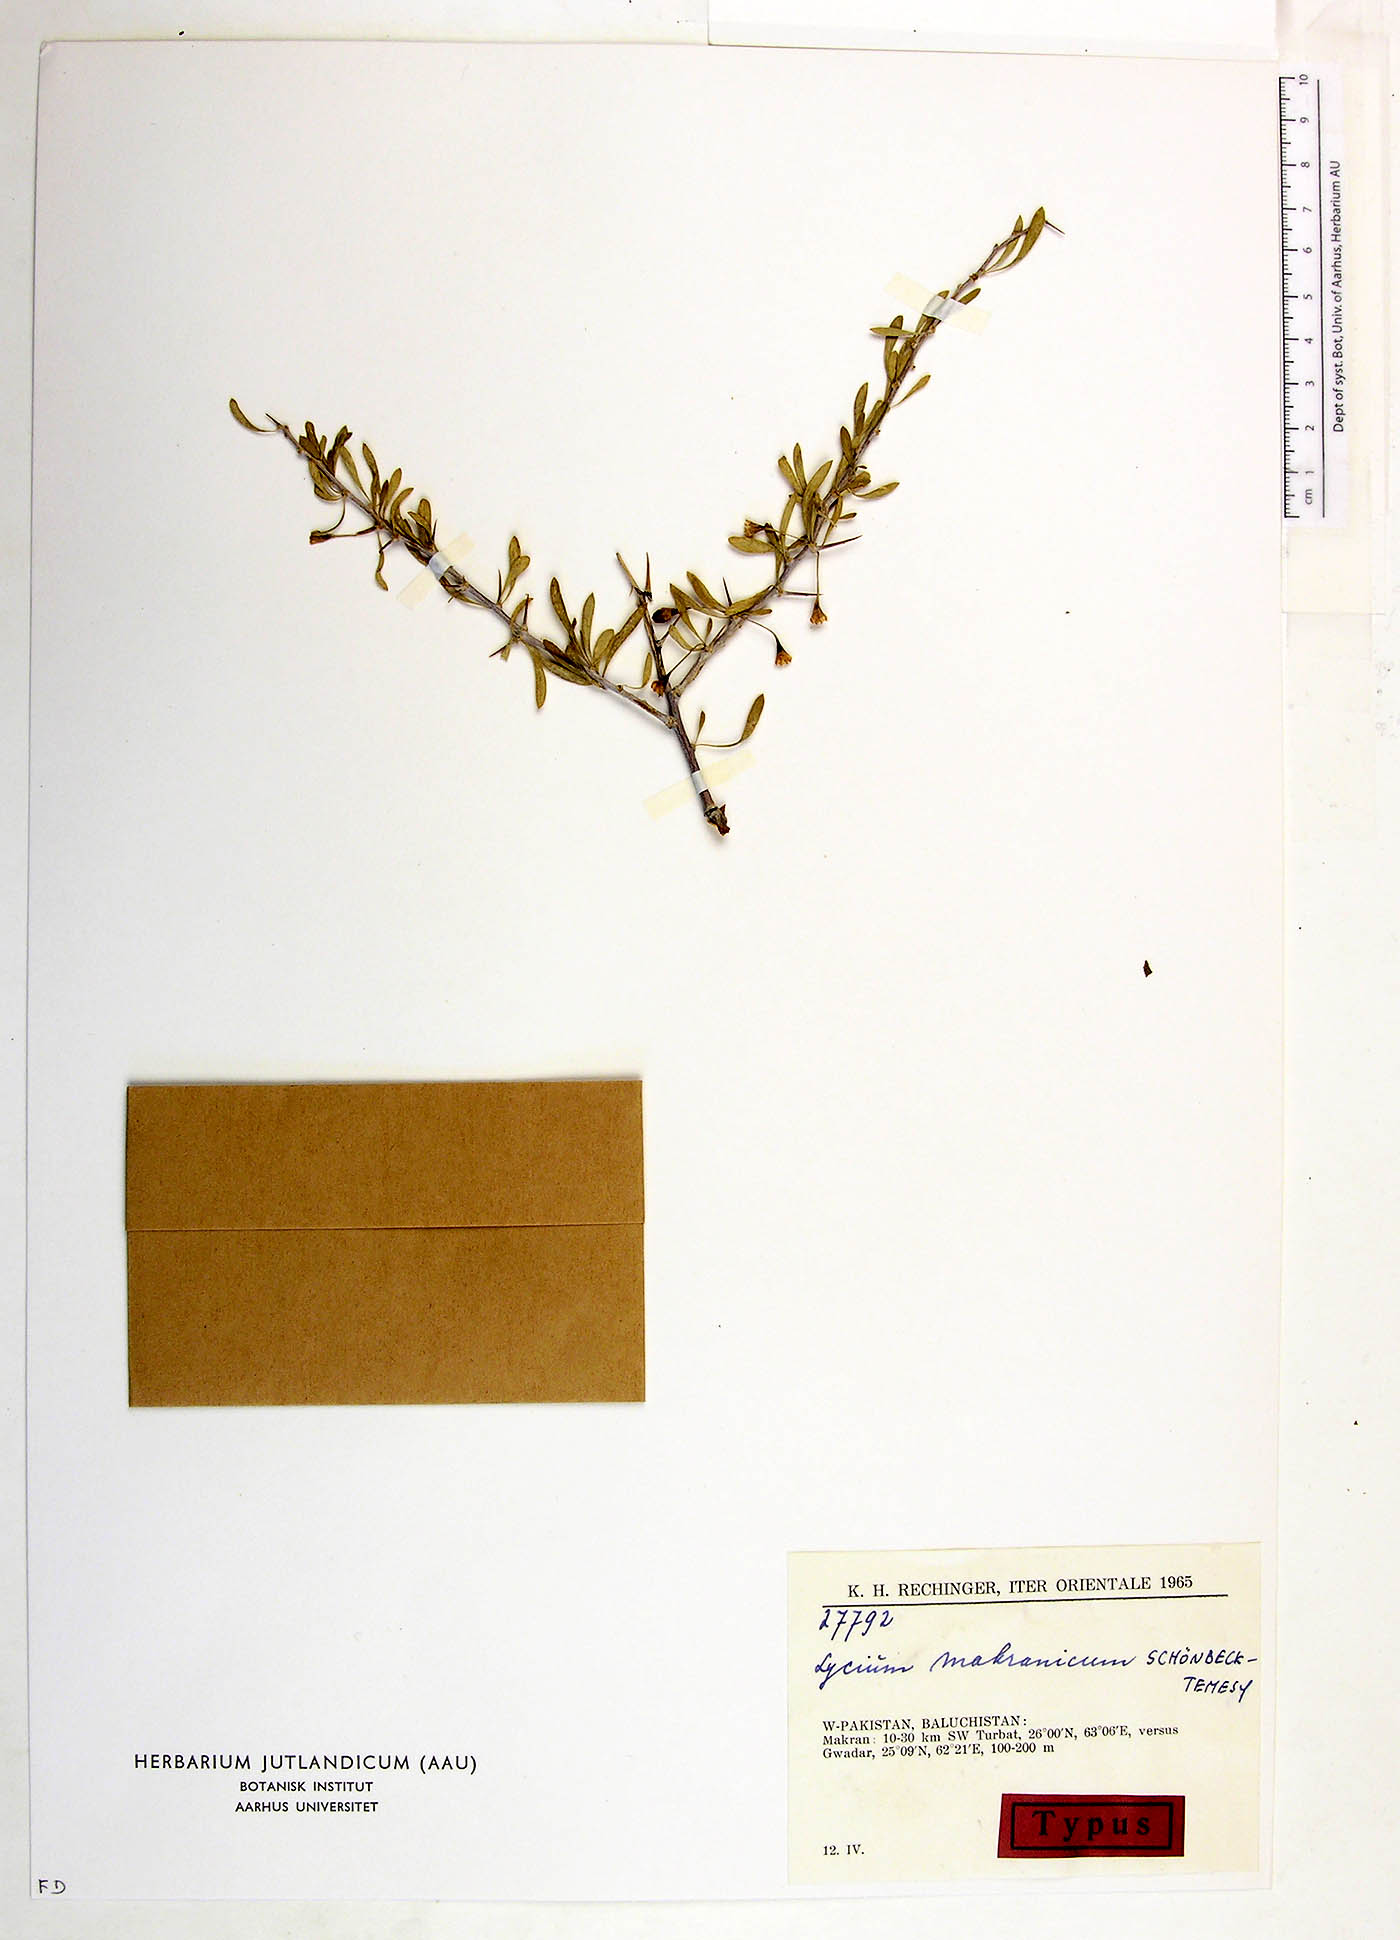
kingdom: Plantae
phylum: Tracheophyta
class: Magnoliopsida
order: Solanales
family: Solanaceae
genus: Lycium
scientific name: Lycium makranicum
